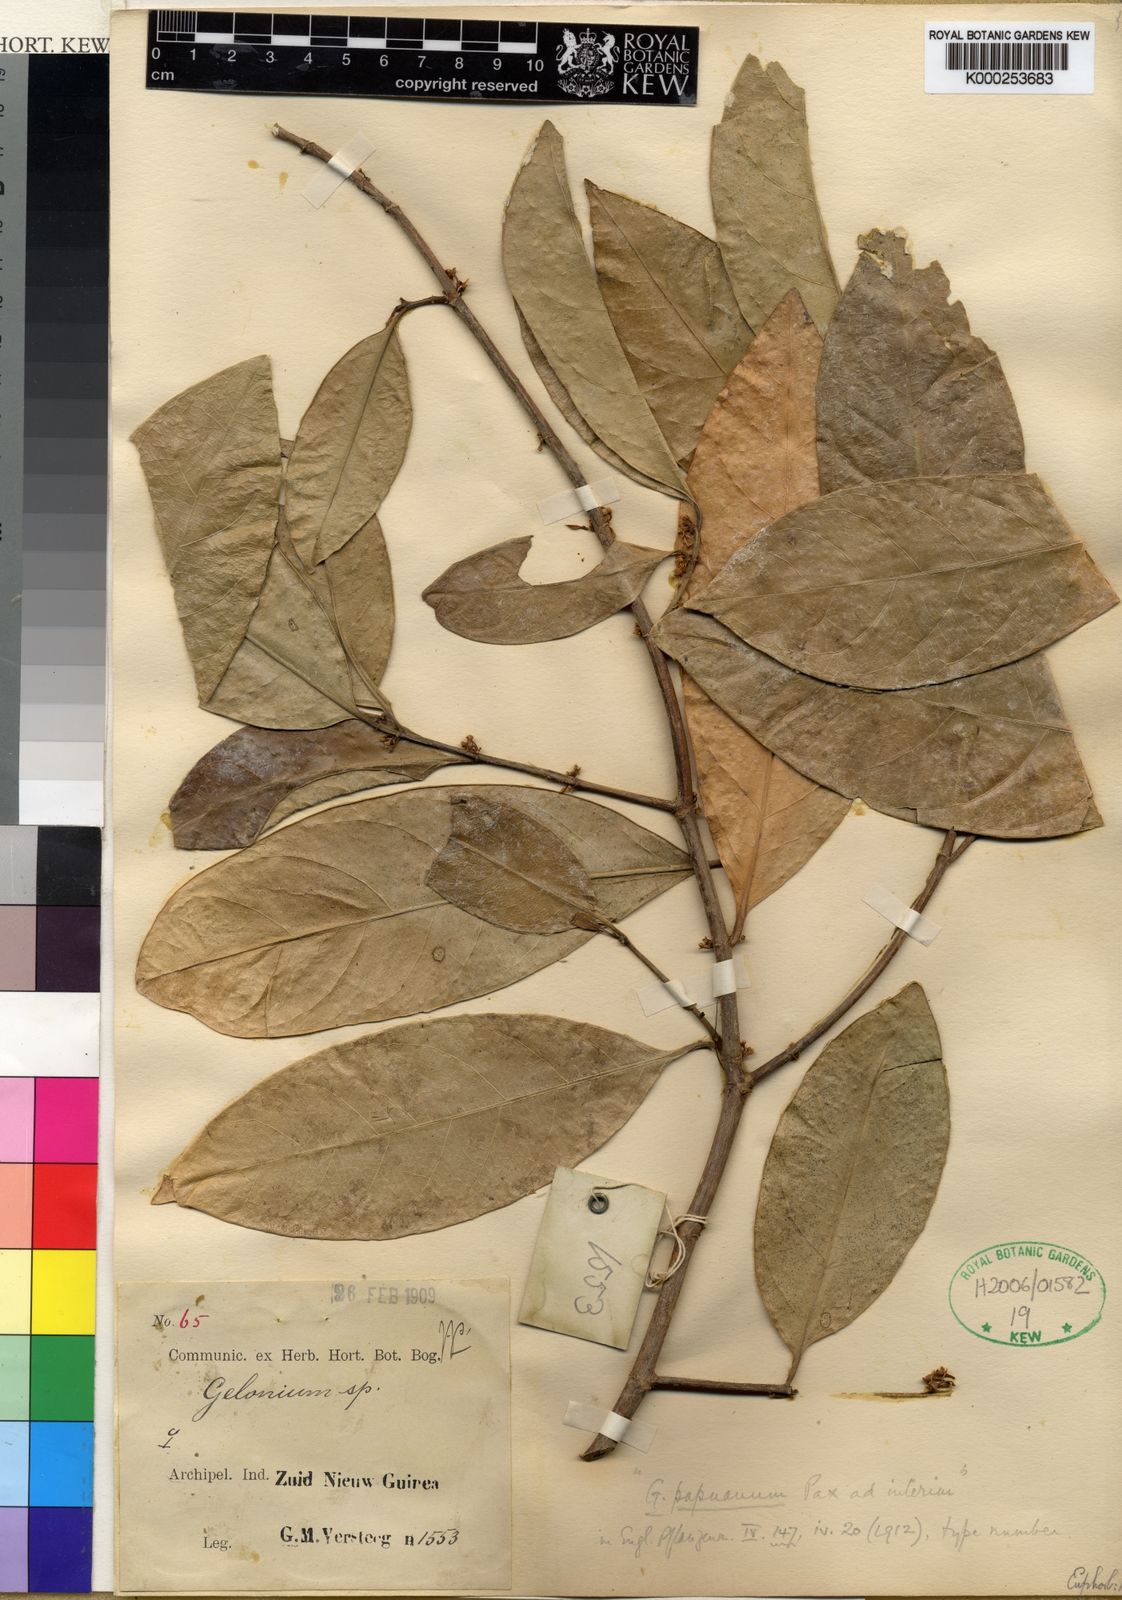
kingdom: Plantae
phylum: Tracheophyta
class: Magnoliopsida
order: Malpighiales
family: Euphorbiaceae
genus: Suregada
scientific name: Suregada glomerulata
